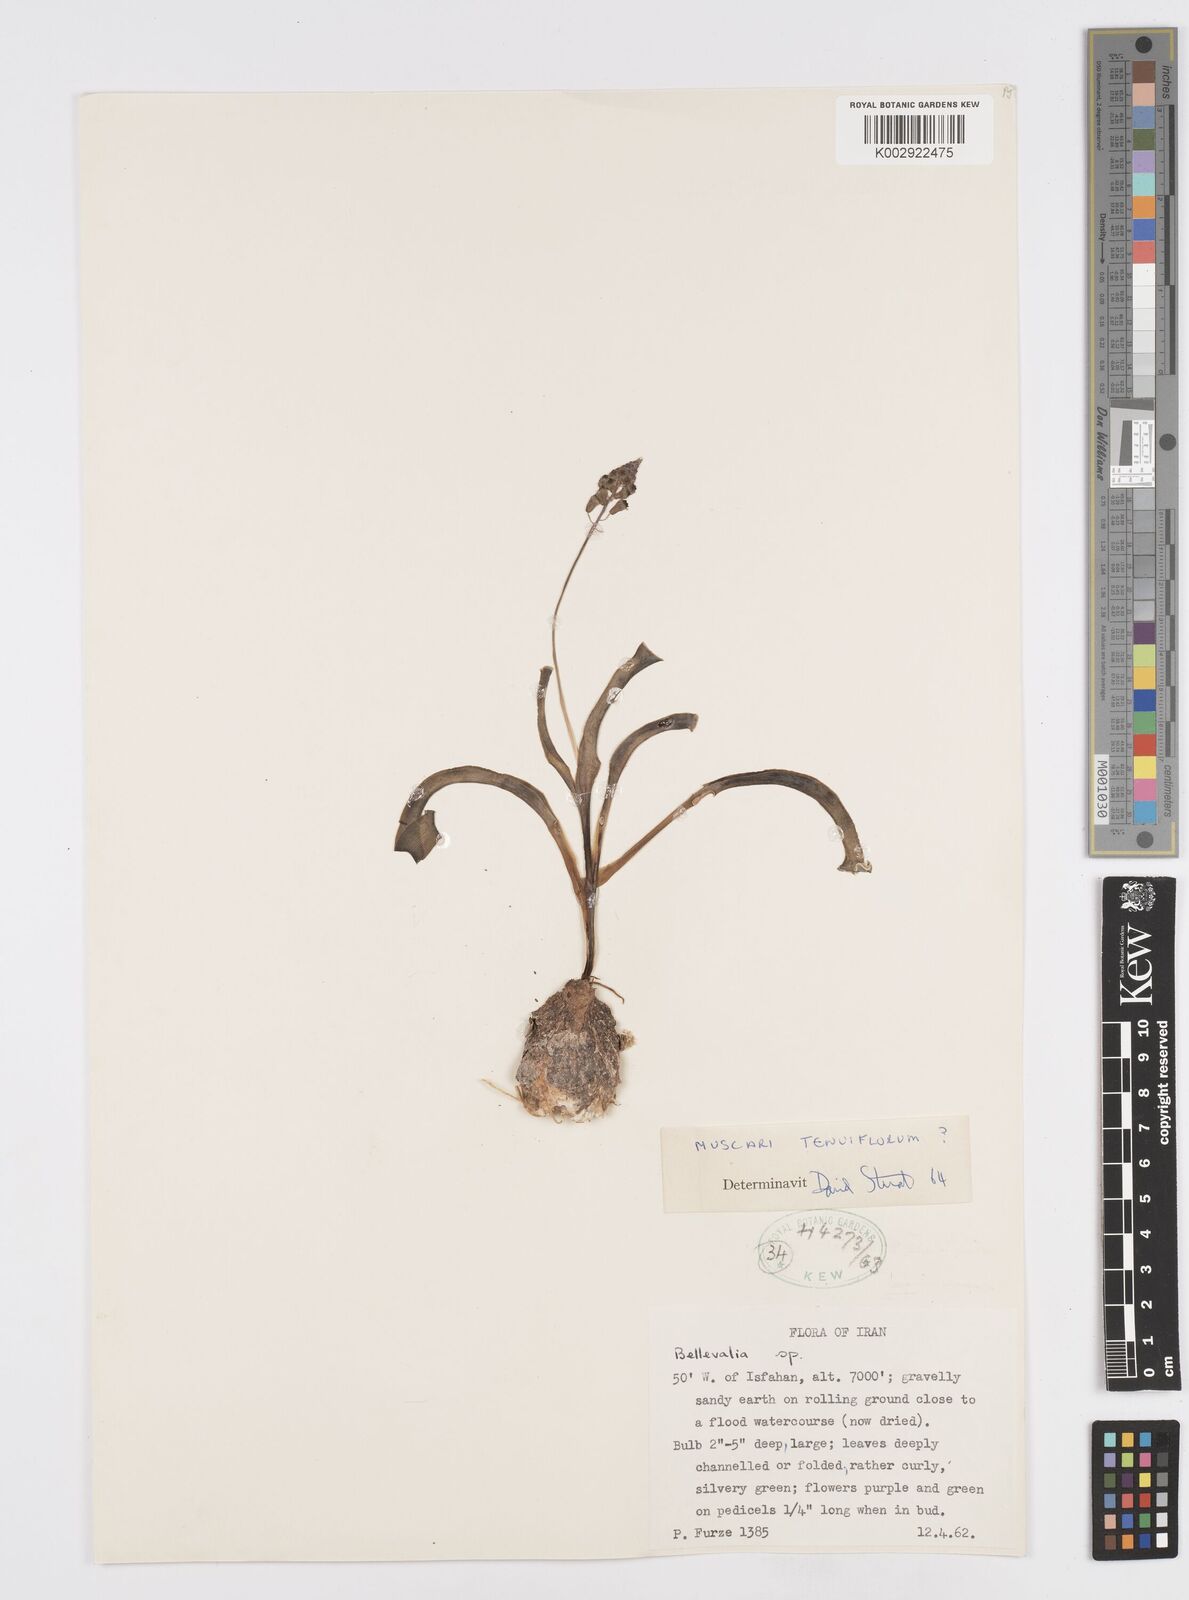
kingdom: Plantae
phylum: Tracheophyta
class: Liliopsida
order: Asparagales
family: Asparagaceae
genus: Muscari
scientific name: Muscari tenuiflorum
